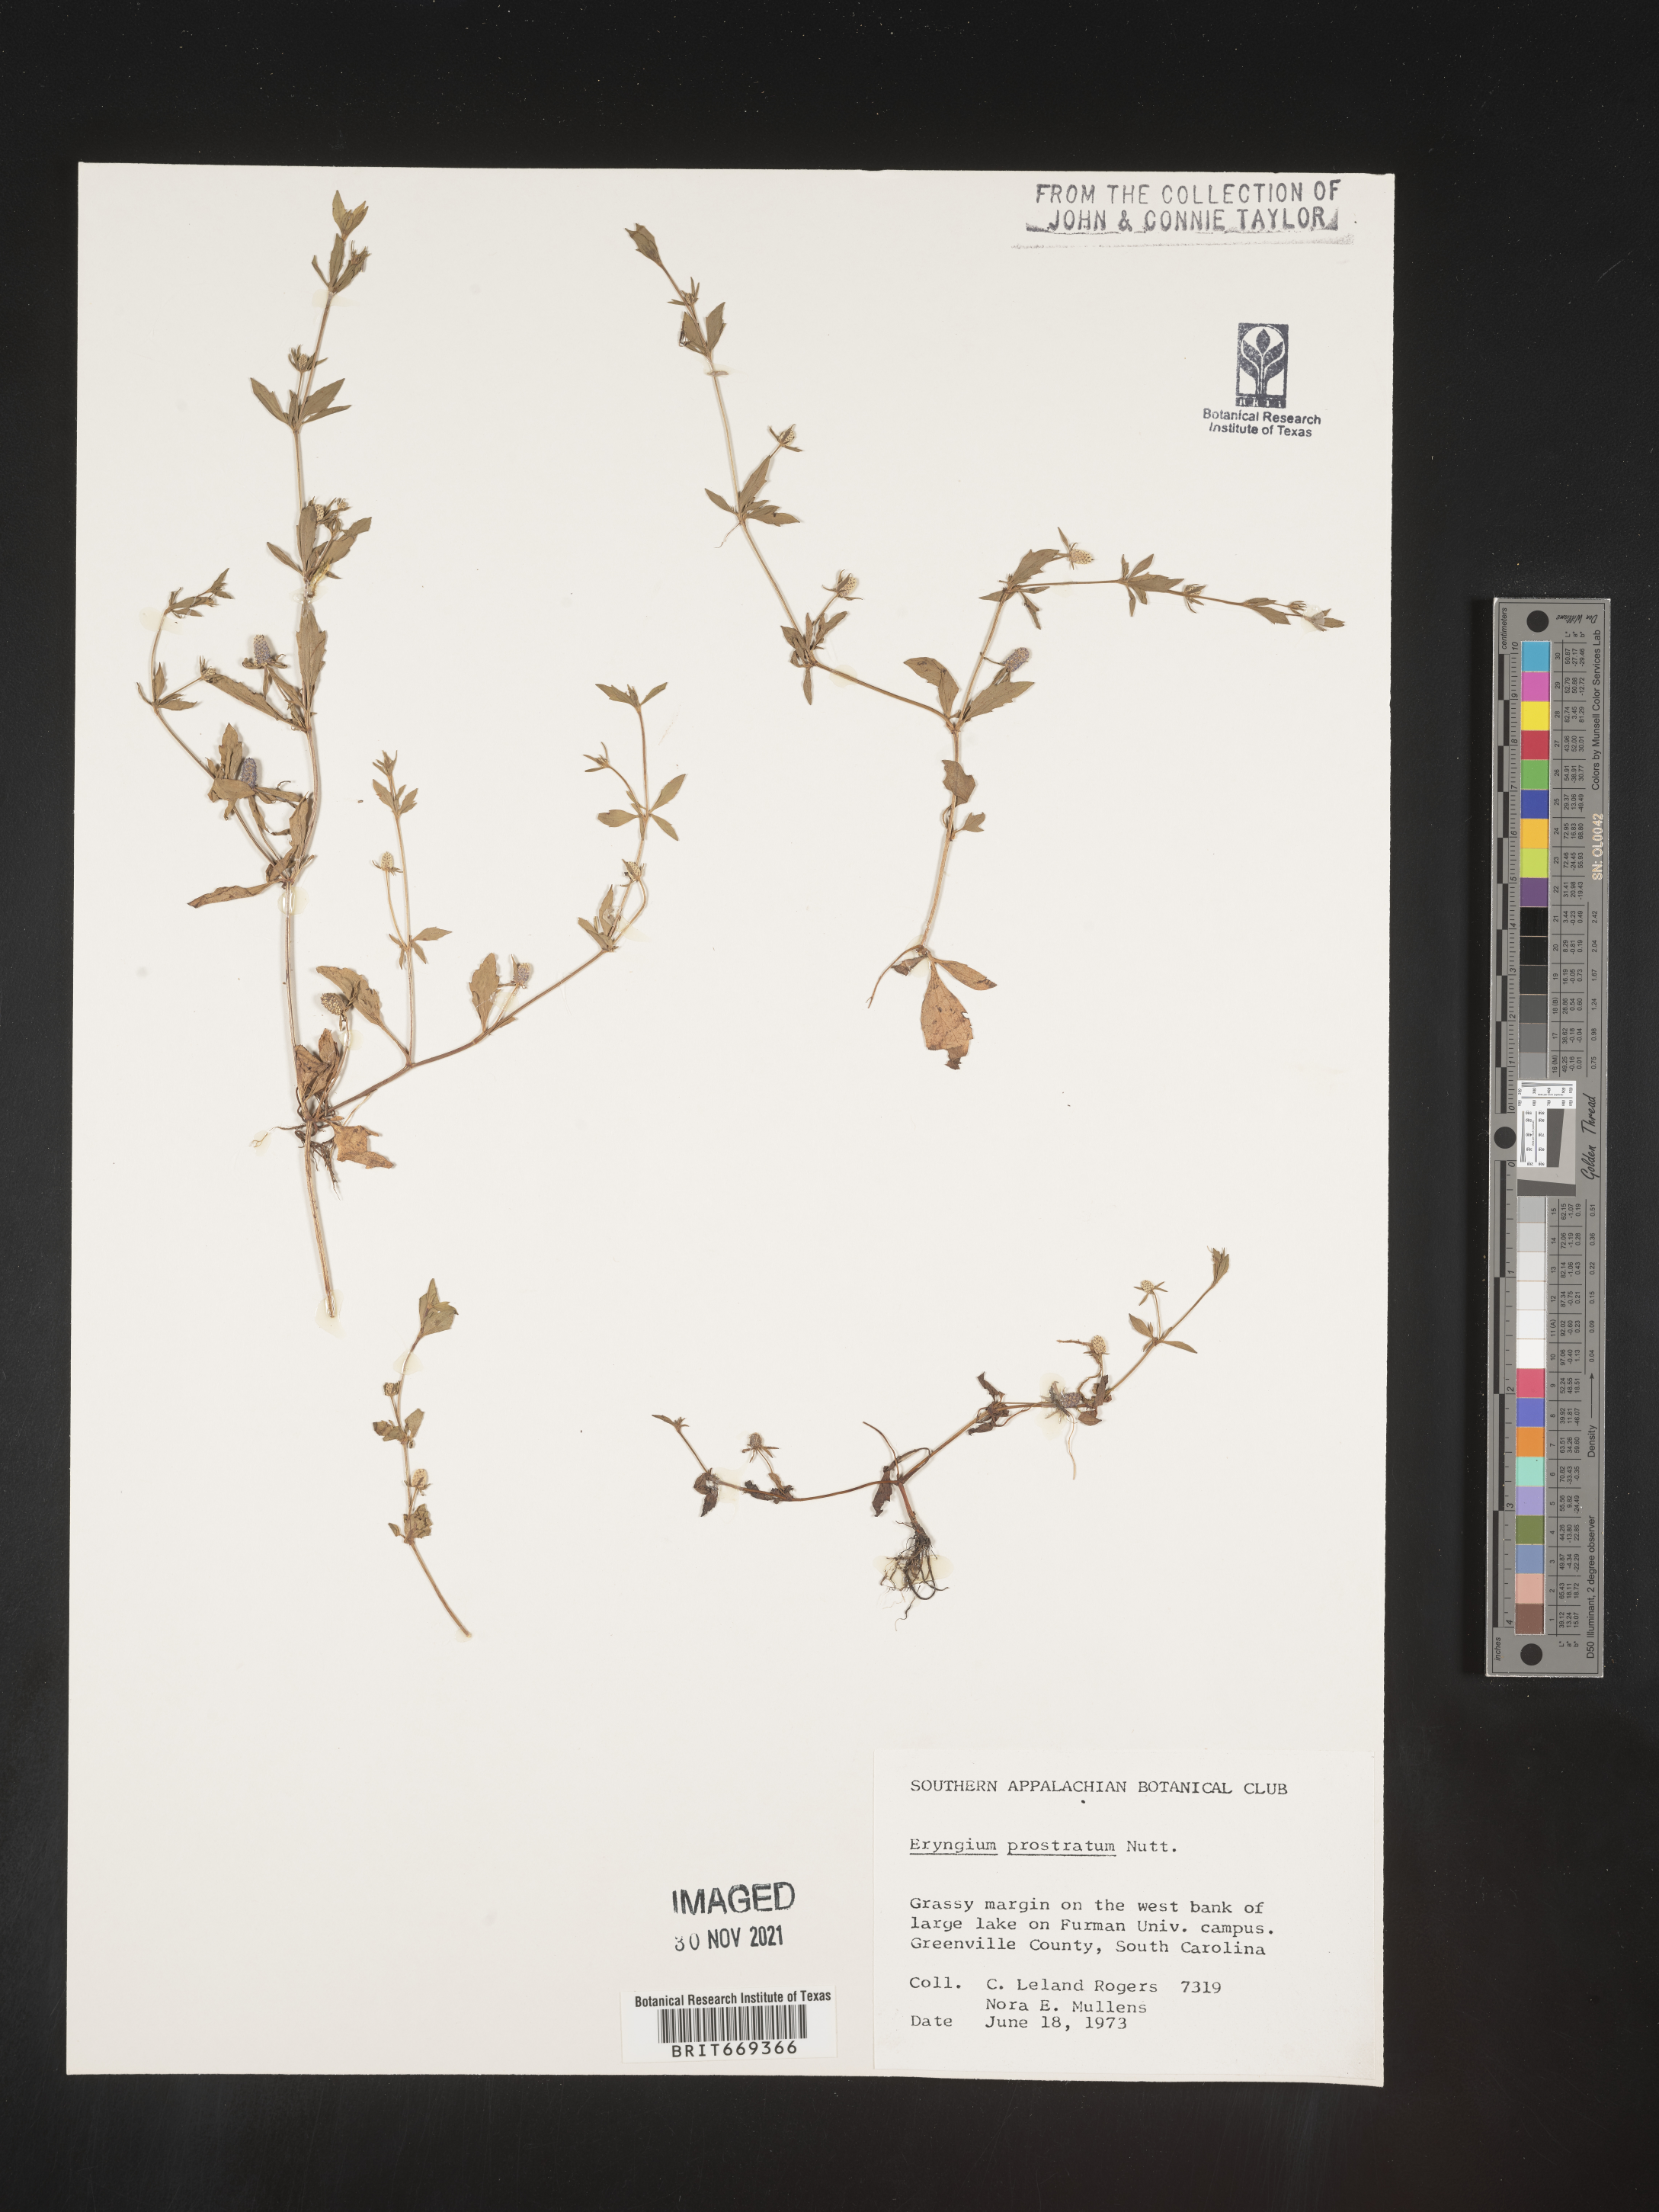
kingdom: Plantae
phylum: Tracheophyta
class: Magnoliopsida
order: Apiales
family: Apiaceae
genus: Eryngium
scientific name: Eryngium prostratum
